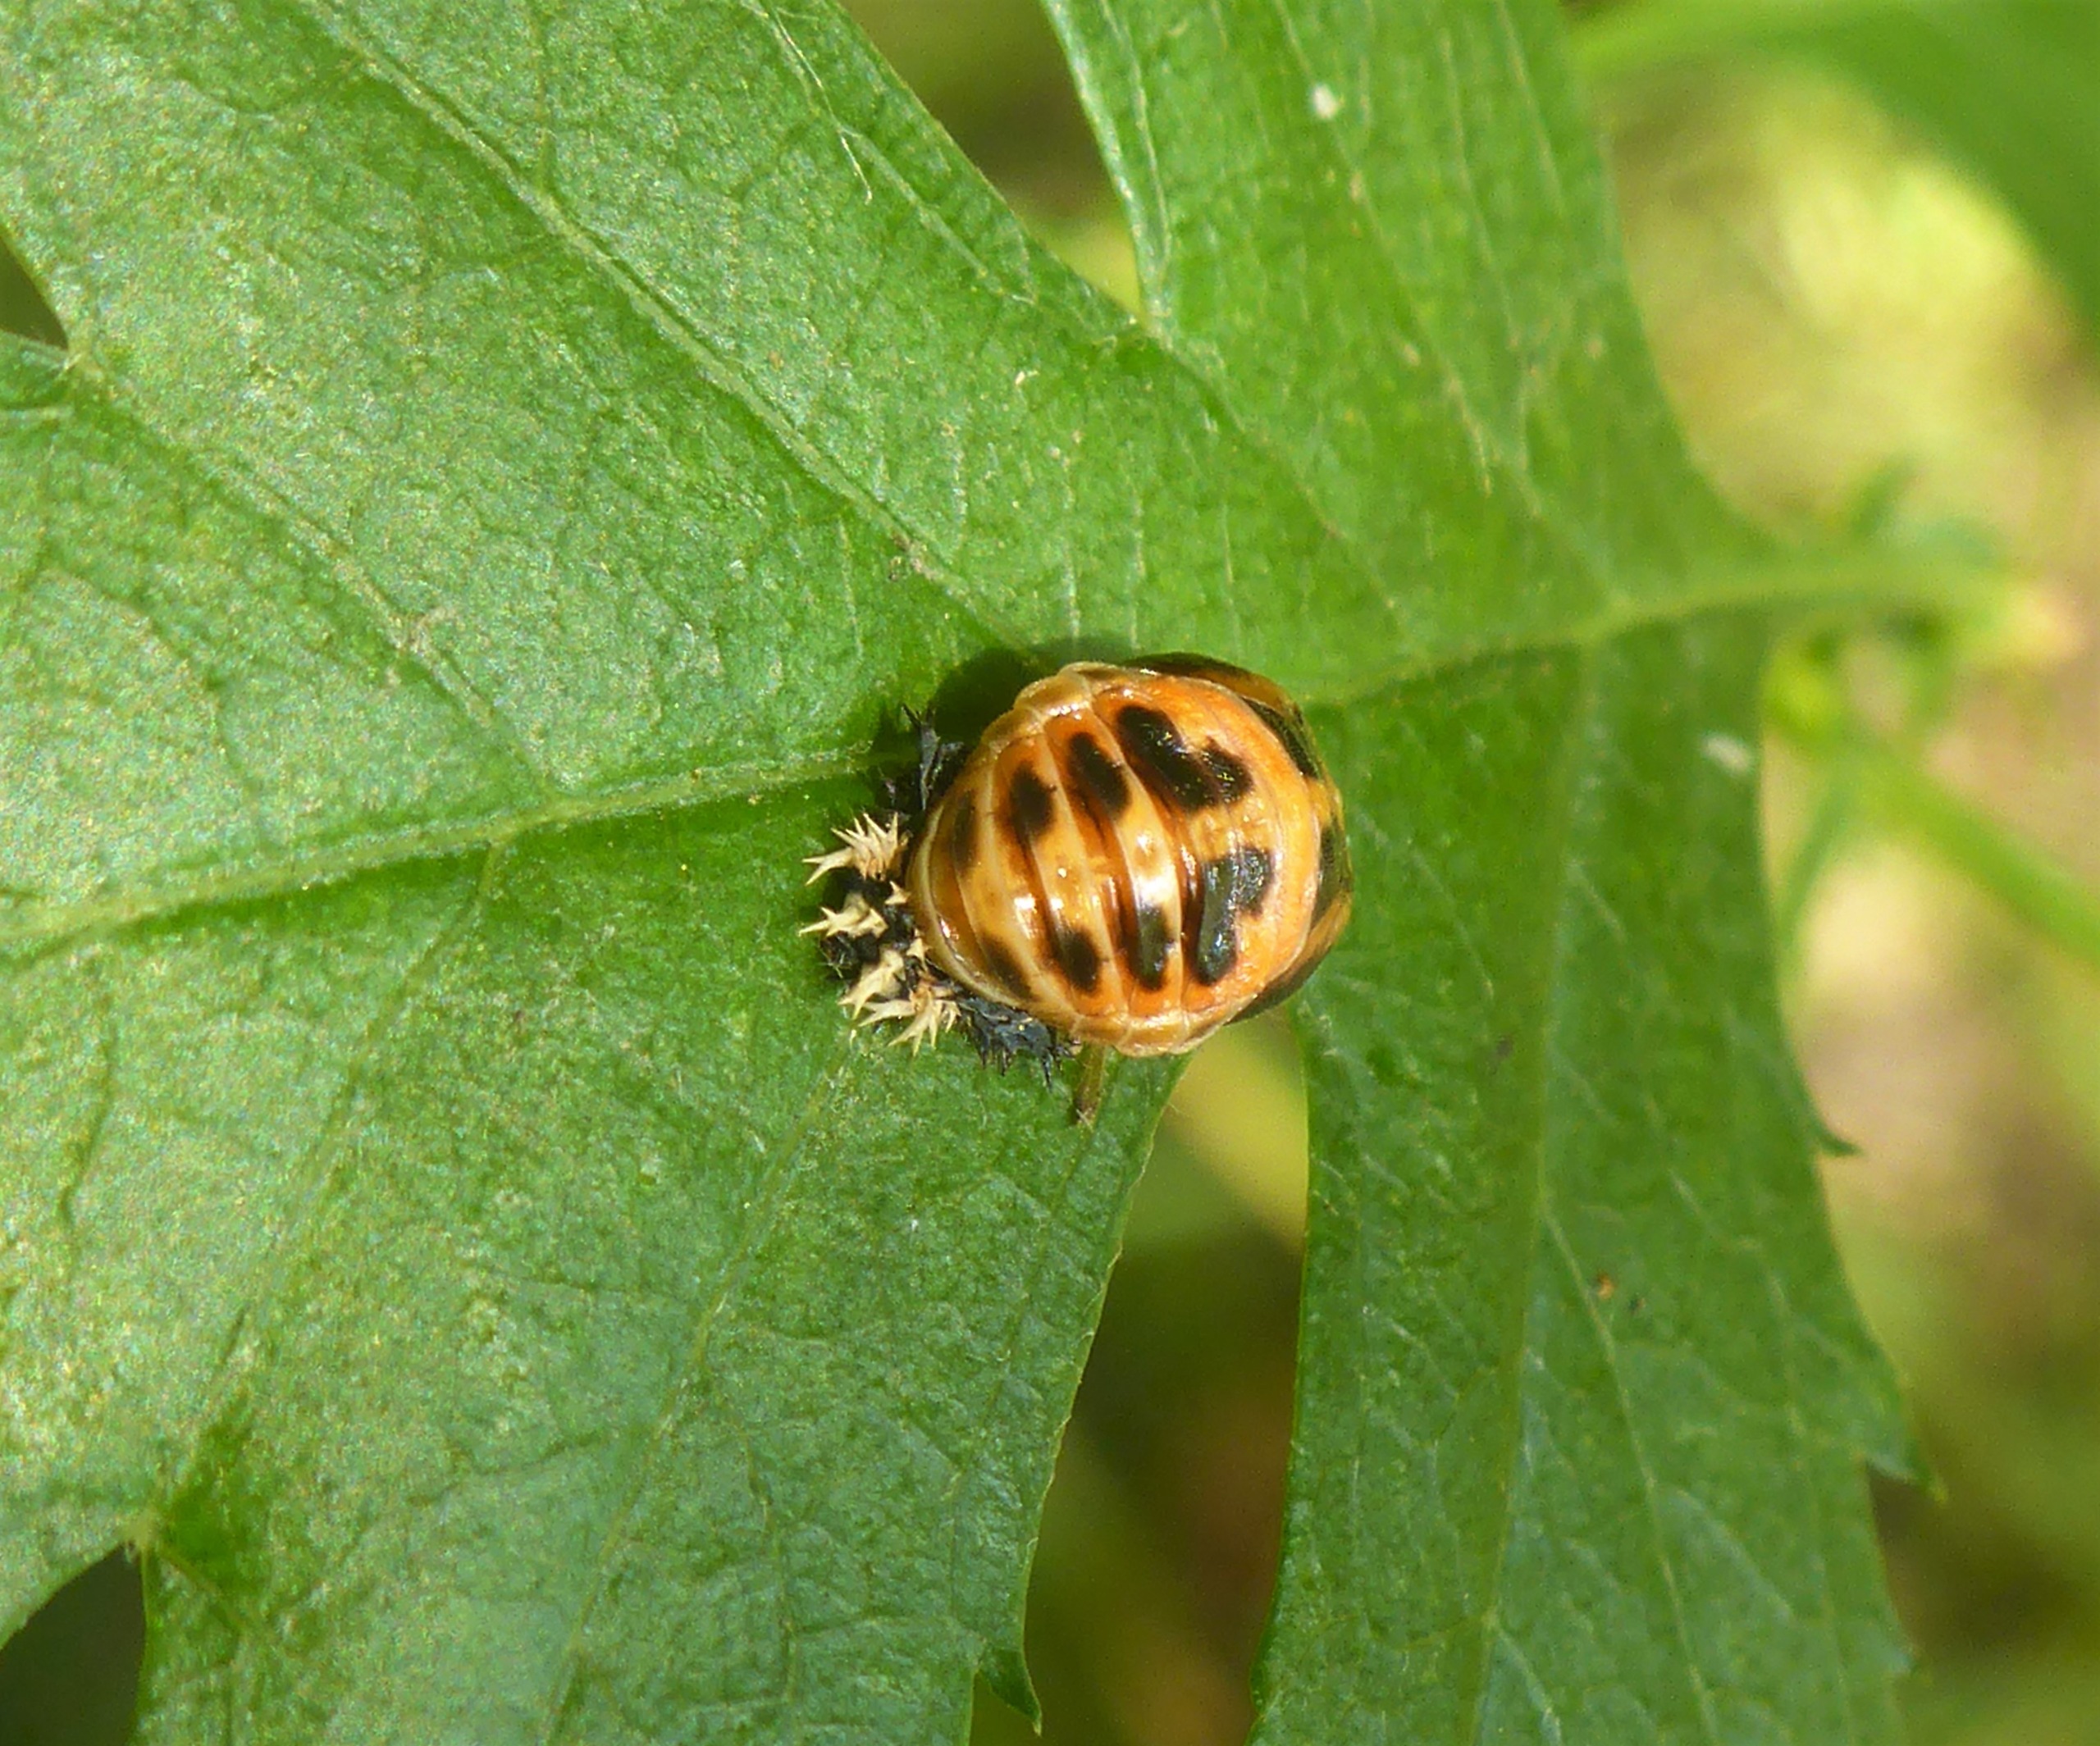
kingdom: Animalia
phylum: Arthropoda
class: Insecta
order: Coleoptera
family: Coccinellidae
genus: Harmonia
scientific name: Harmonia axyridis
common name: Harlekinmariehøne
